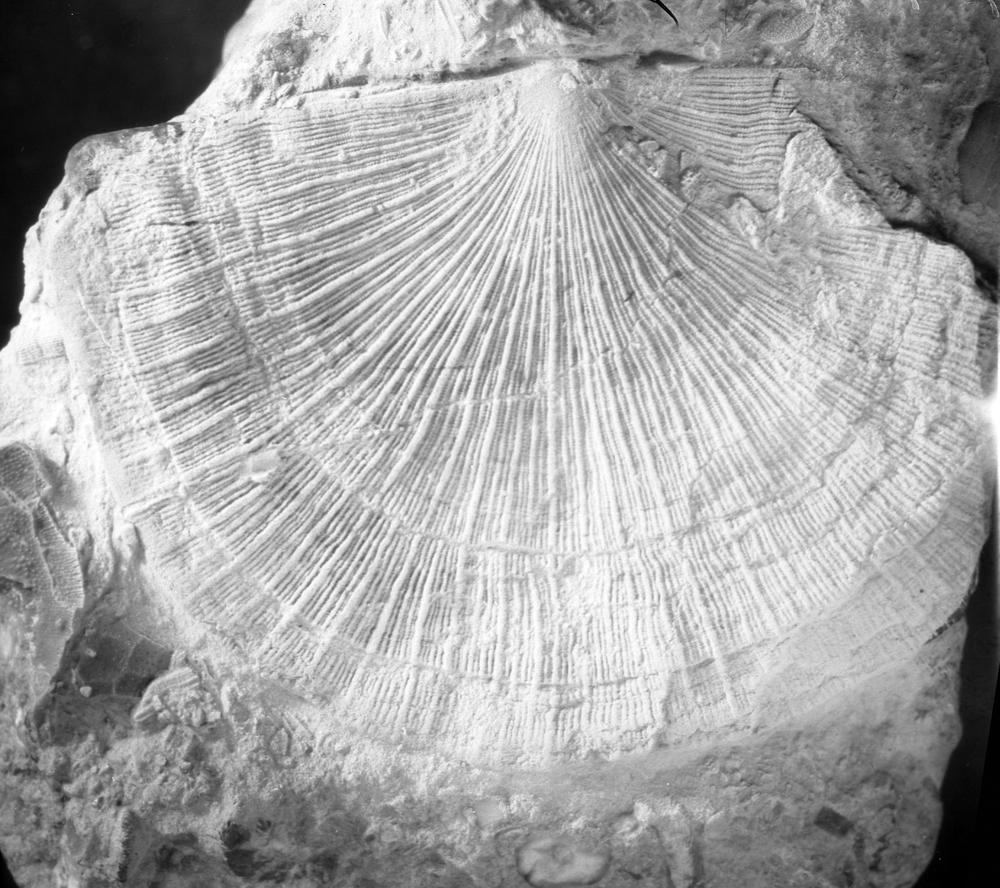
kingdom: Animalia
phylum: Brachiopoda
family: Strophomenidae
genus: Keilamena
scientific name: Keilamena Actinomena occidens
